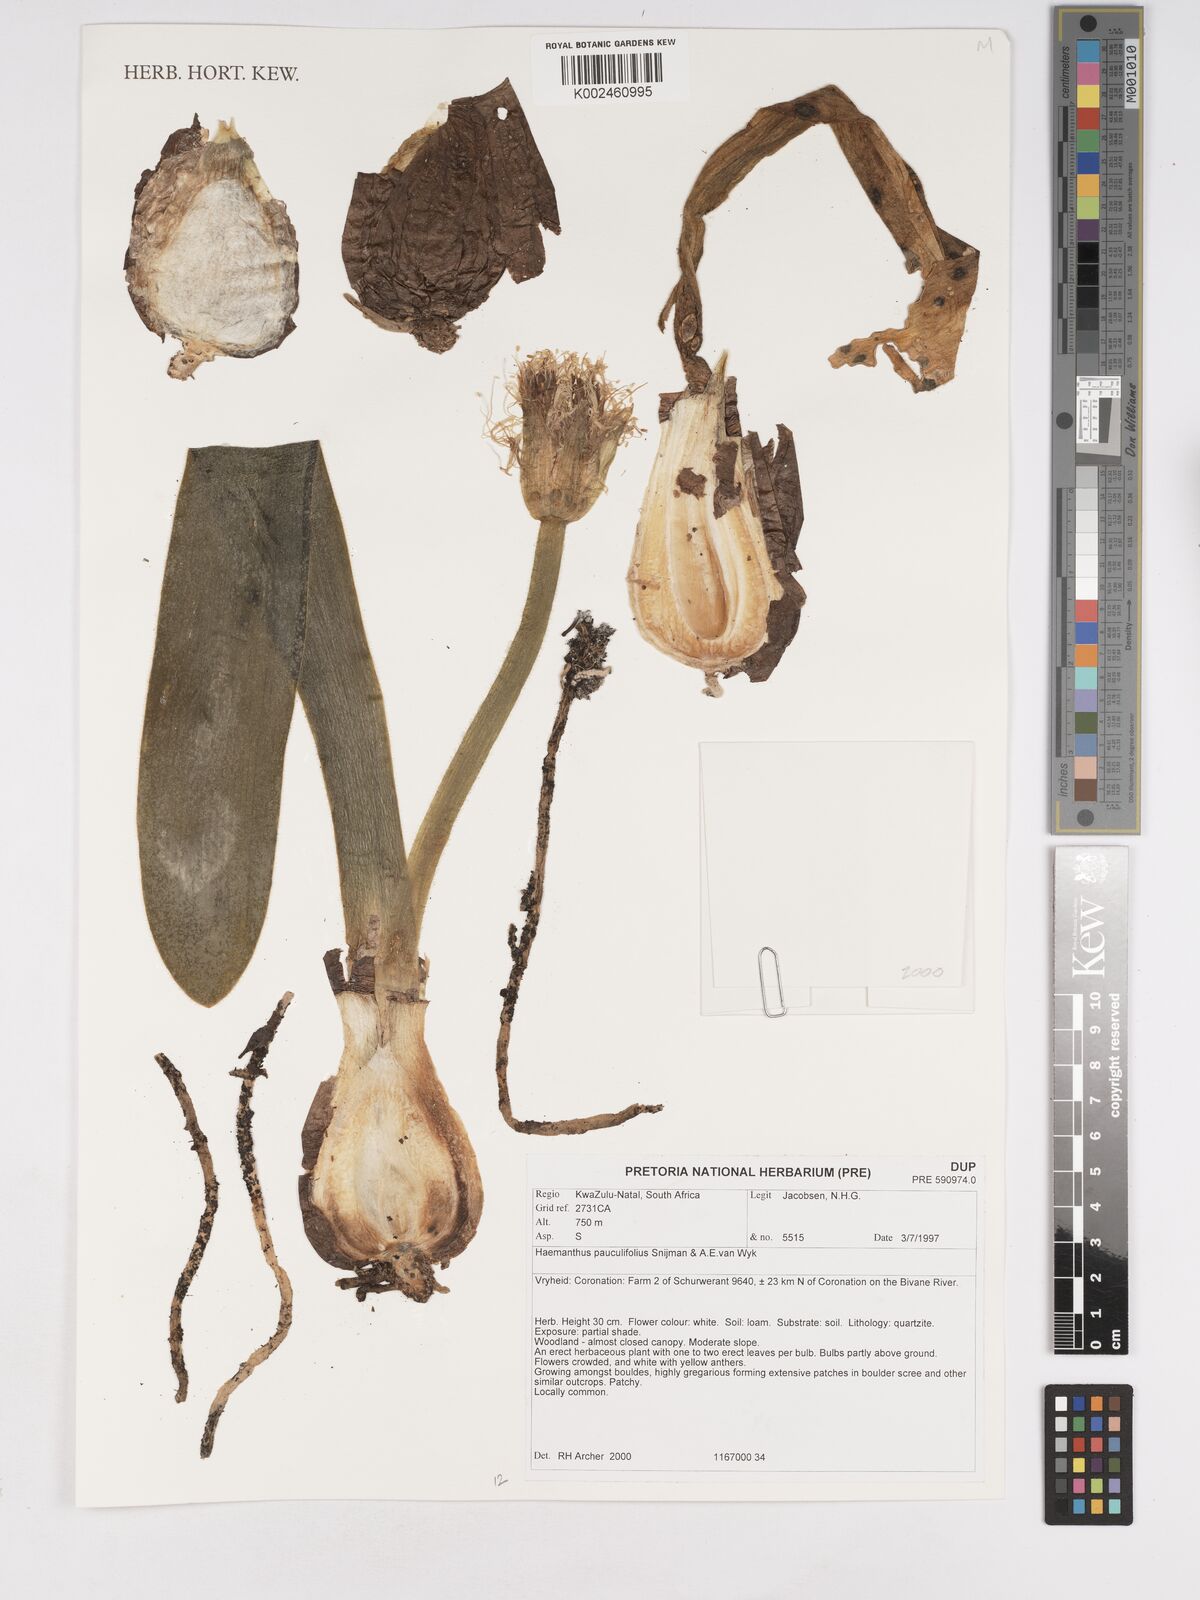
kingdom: Plantae
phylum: Tracheophyta
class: Liliopsida
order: Asparagales
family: Amaryllidaceae
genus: Haemanthus
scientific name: Haemanthus pauculifolius
